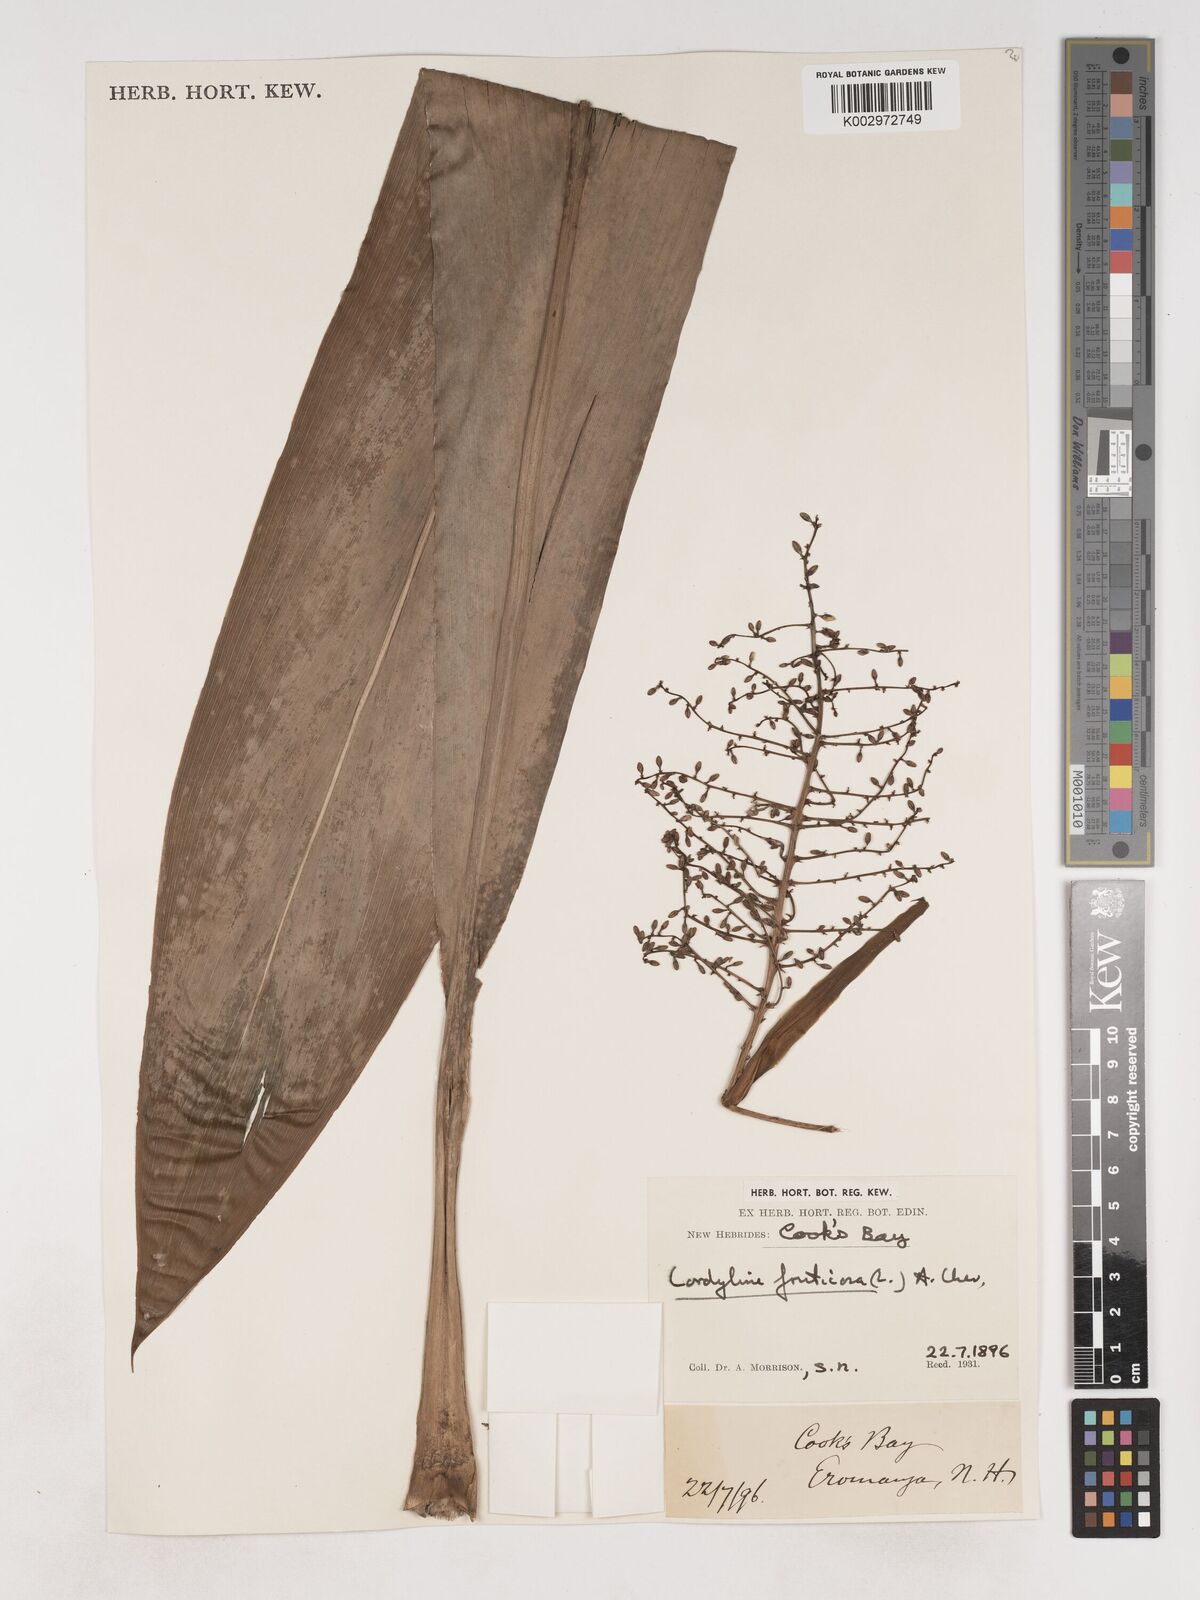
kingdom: Plantae
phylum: Tracheophyta
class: Liliopsida
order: Asparagales
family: Asparagaceae
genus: Cordyline
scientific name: Cordyline fruticosa
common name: Good-luck-plant
